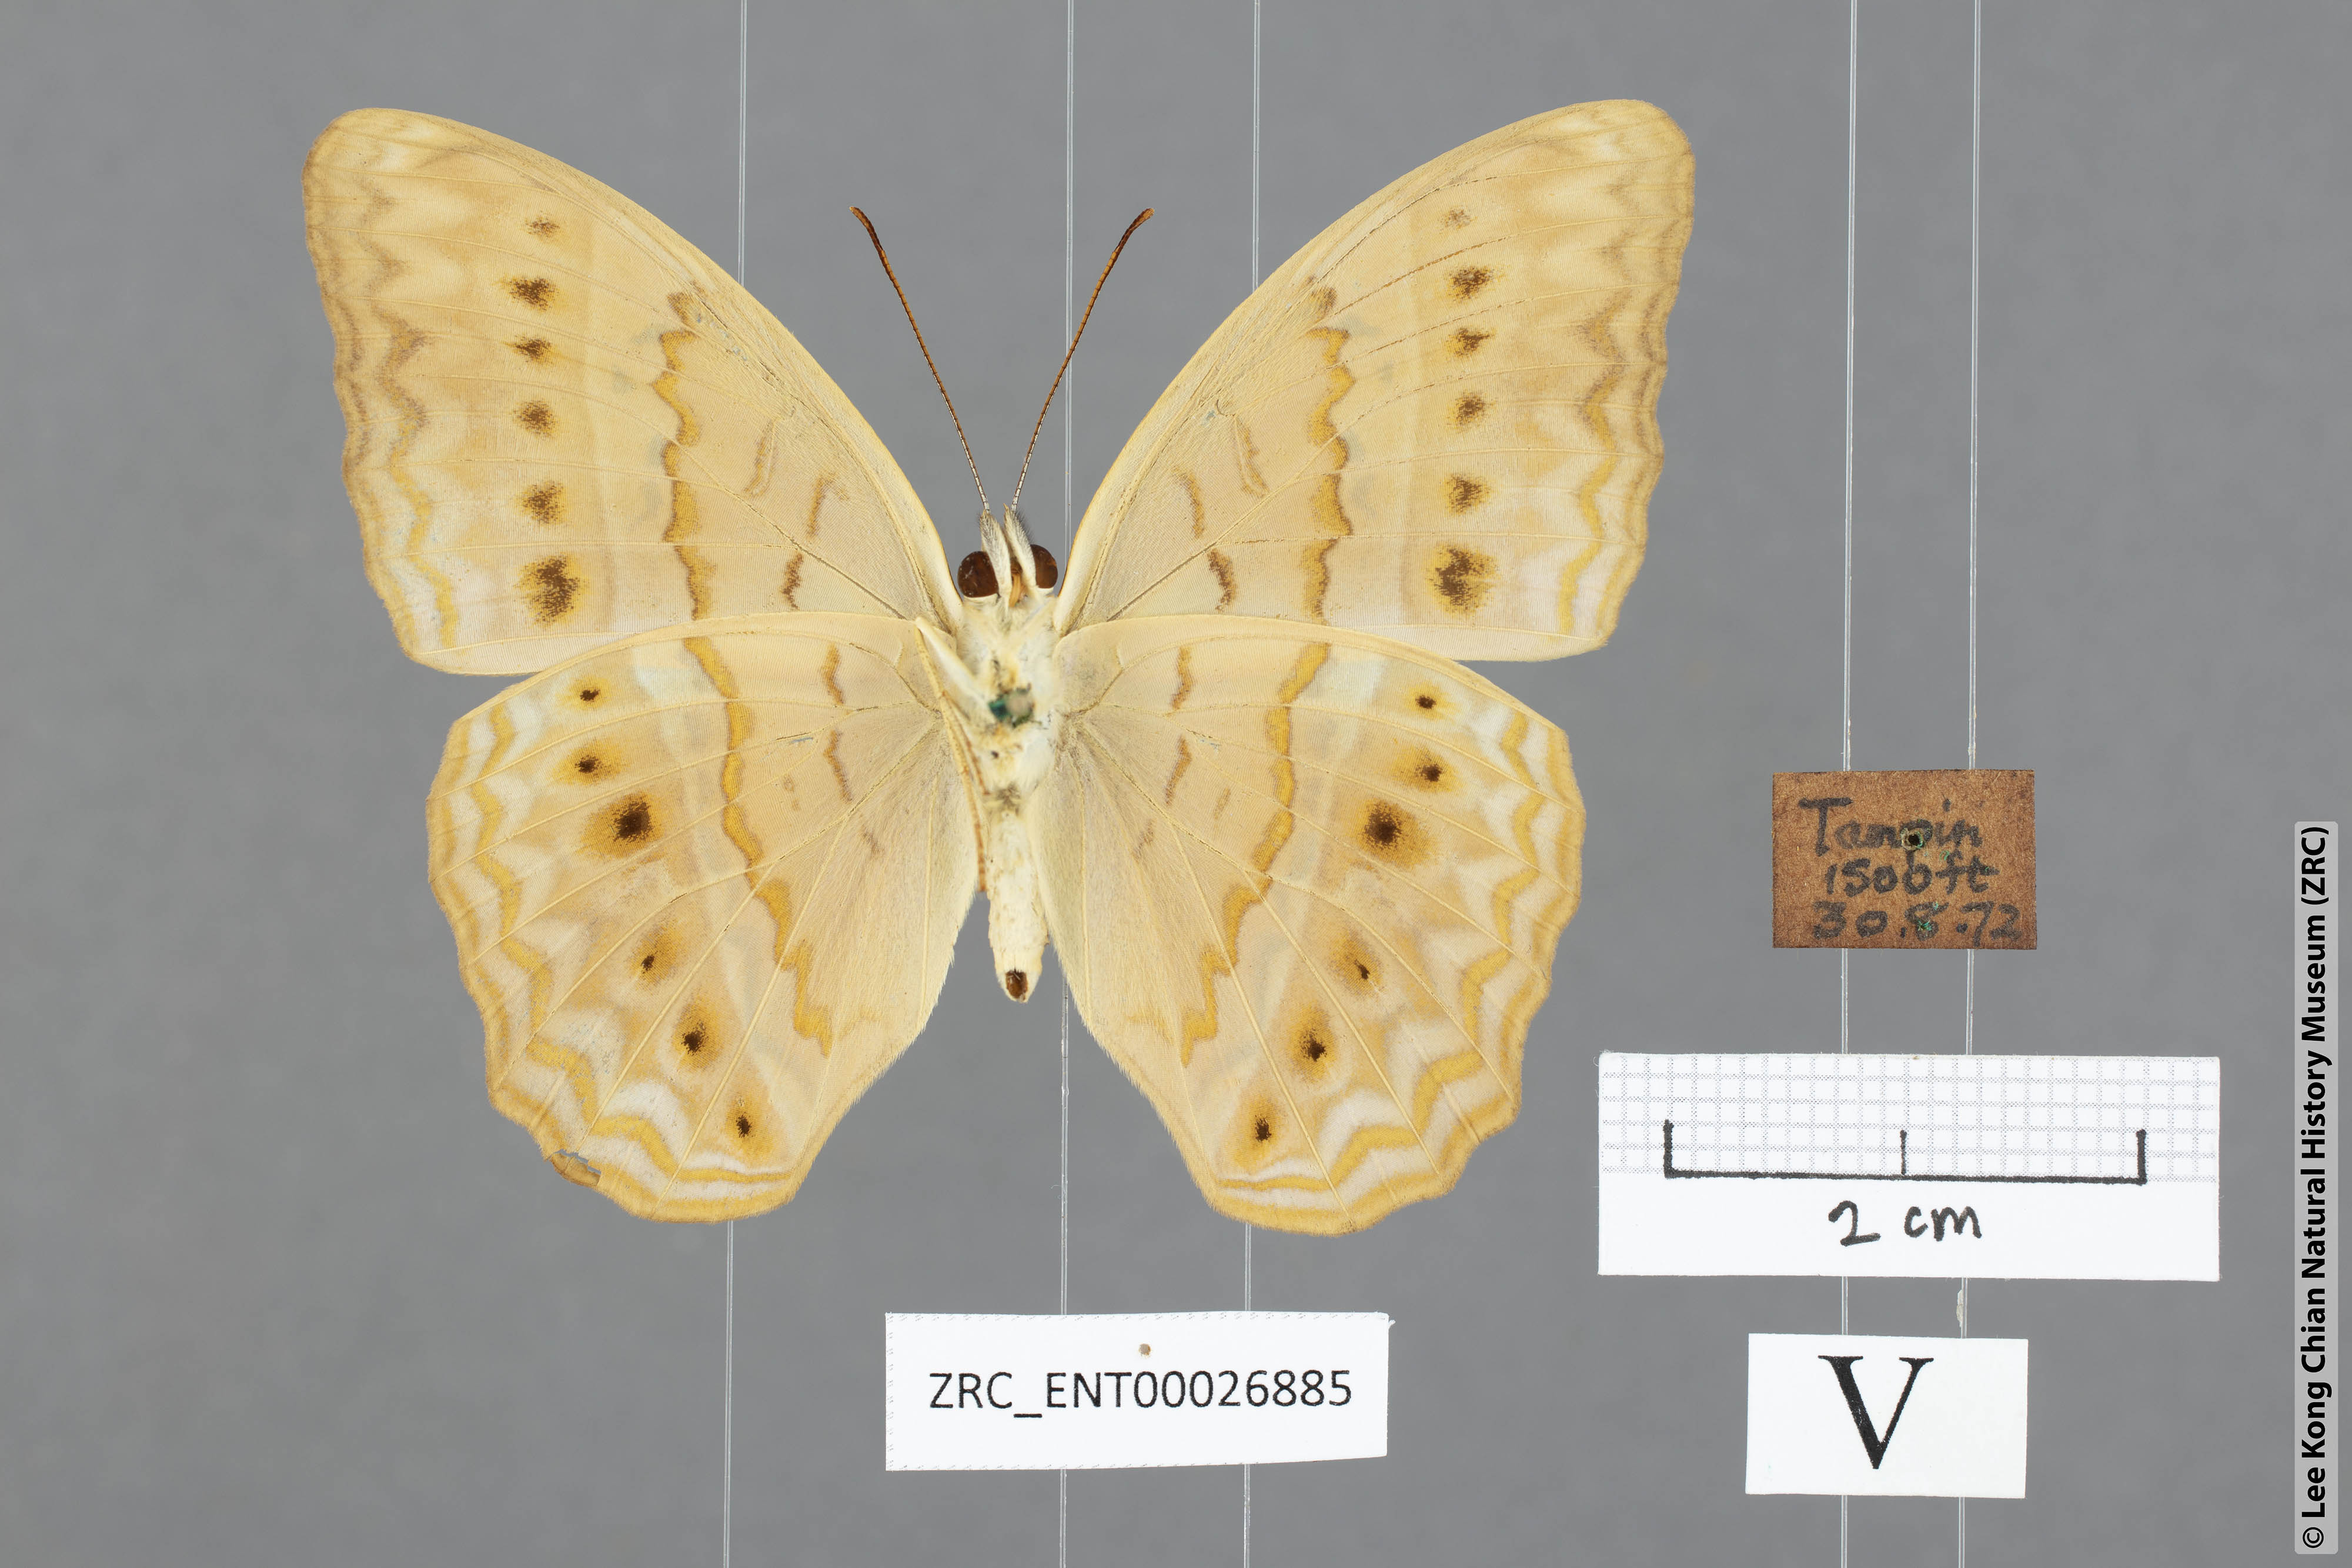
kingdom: Animalia
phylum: Arthropoda
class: Insecta
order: Lepidoptera
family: Nymphalidae
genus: Cirrochroa
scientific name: Cirrochroa tyche
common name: Common yeoman
